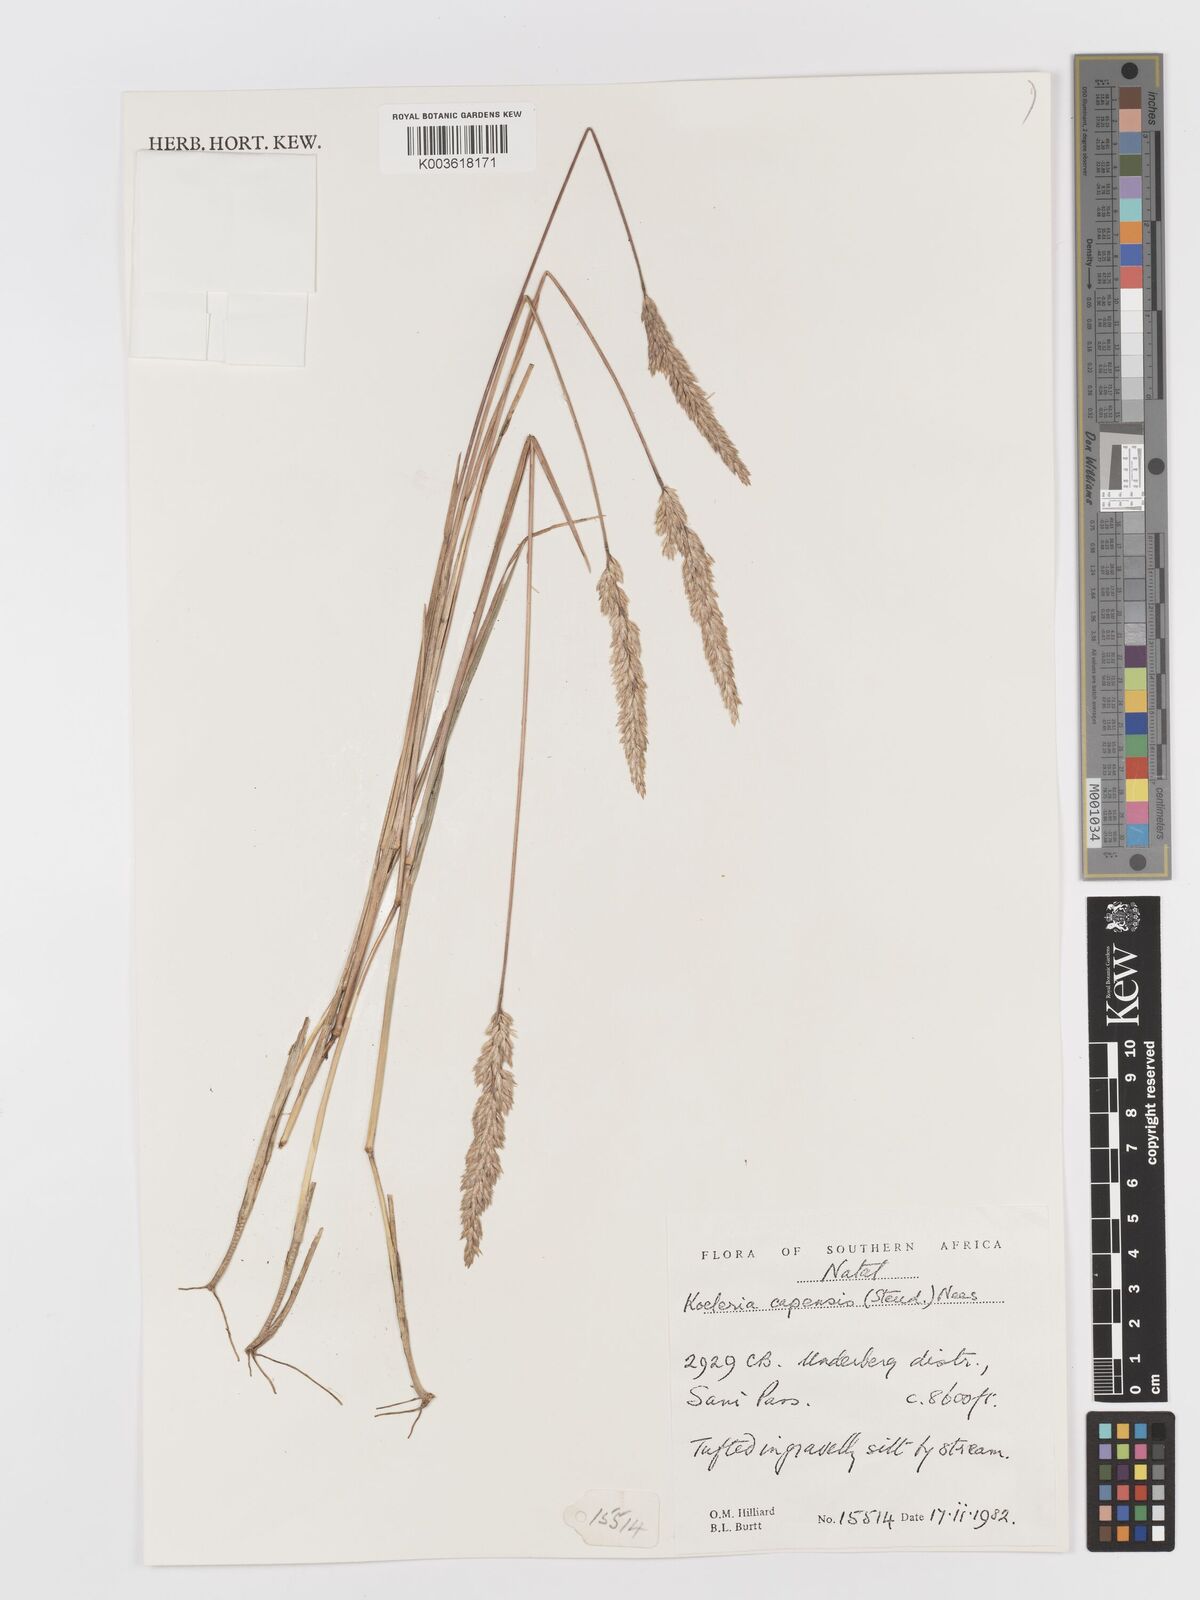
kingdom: Plantae
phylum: Tracheophyta
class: Liliopsida
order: Poales
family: Poaceae
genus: Koeleria
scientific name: Koeleria capensis
